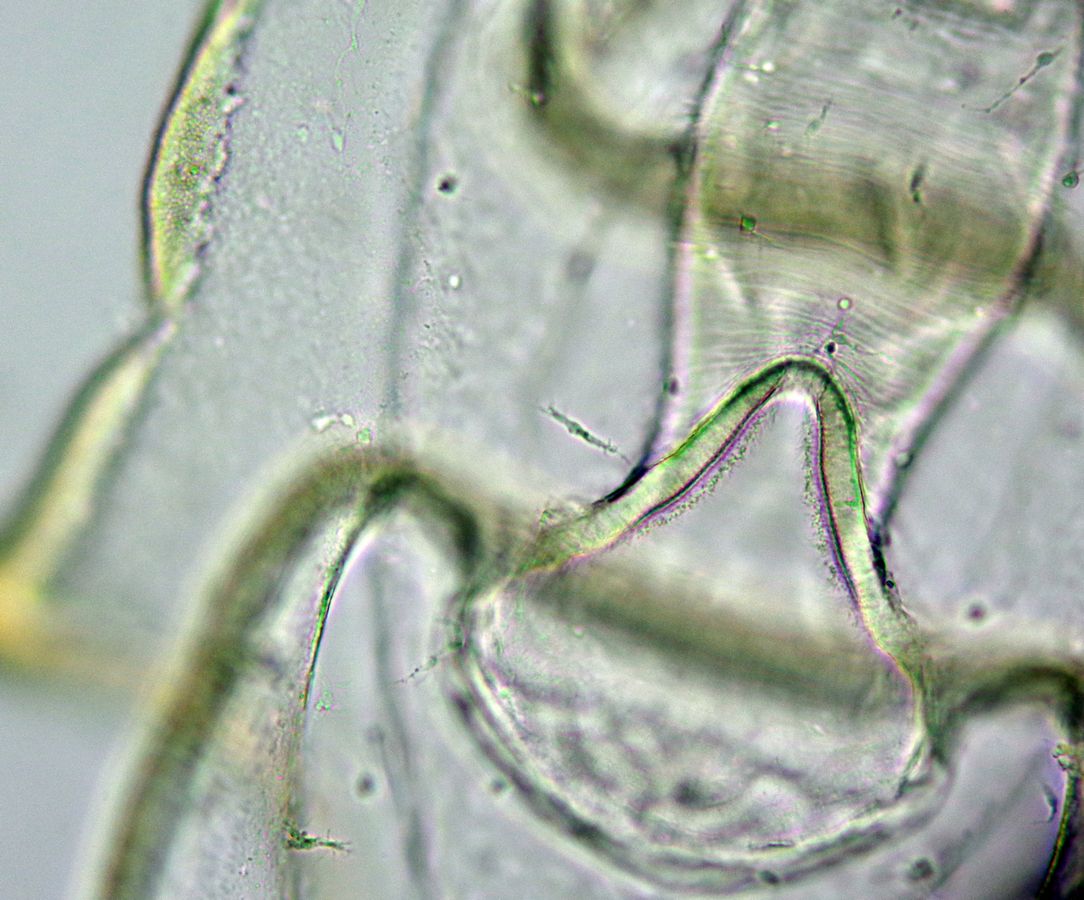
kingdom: Animalia
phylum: Echinodermata
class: Asteroidea
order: Forcipulatida
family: Asteriidae
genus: Asterias
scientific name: Asterias rubens
